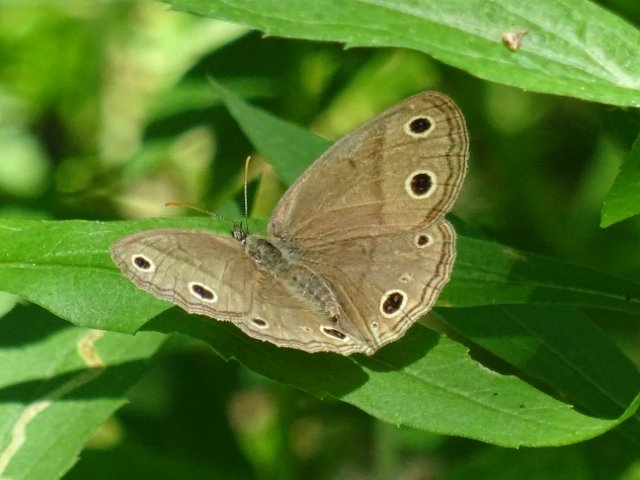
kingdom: Animalia
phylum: Arthropoda
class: Insecta
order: Lepidoptera
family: Nymphalidae
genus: Euptychia
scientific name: Euptychia cymela
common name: Little Wood Satyr
